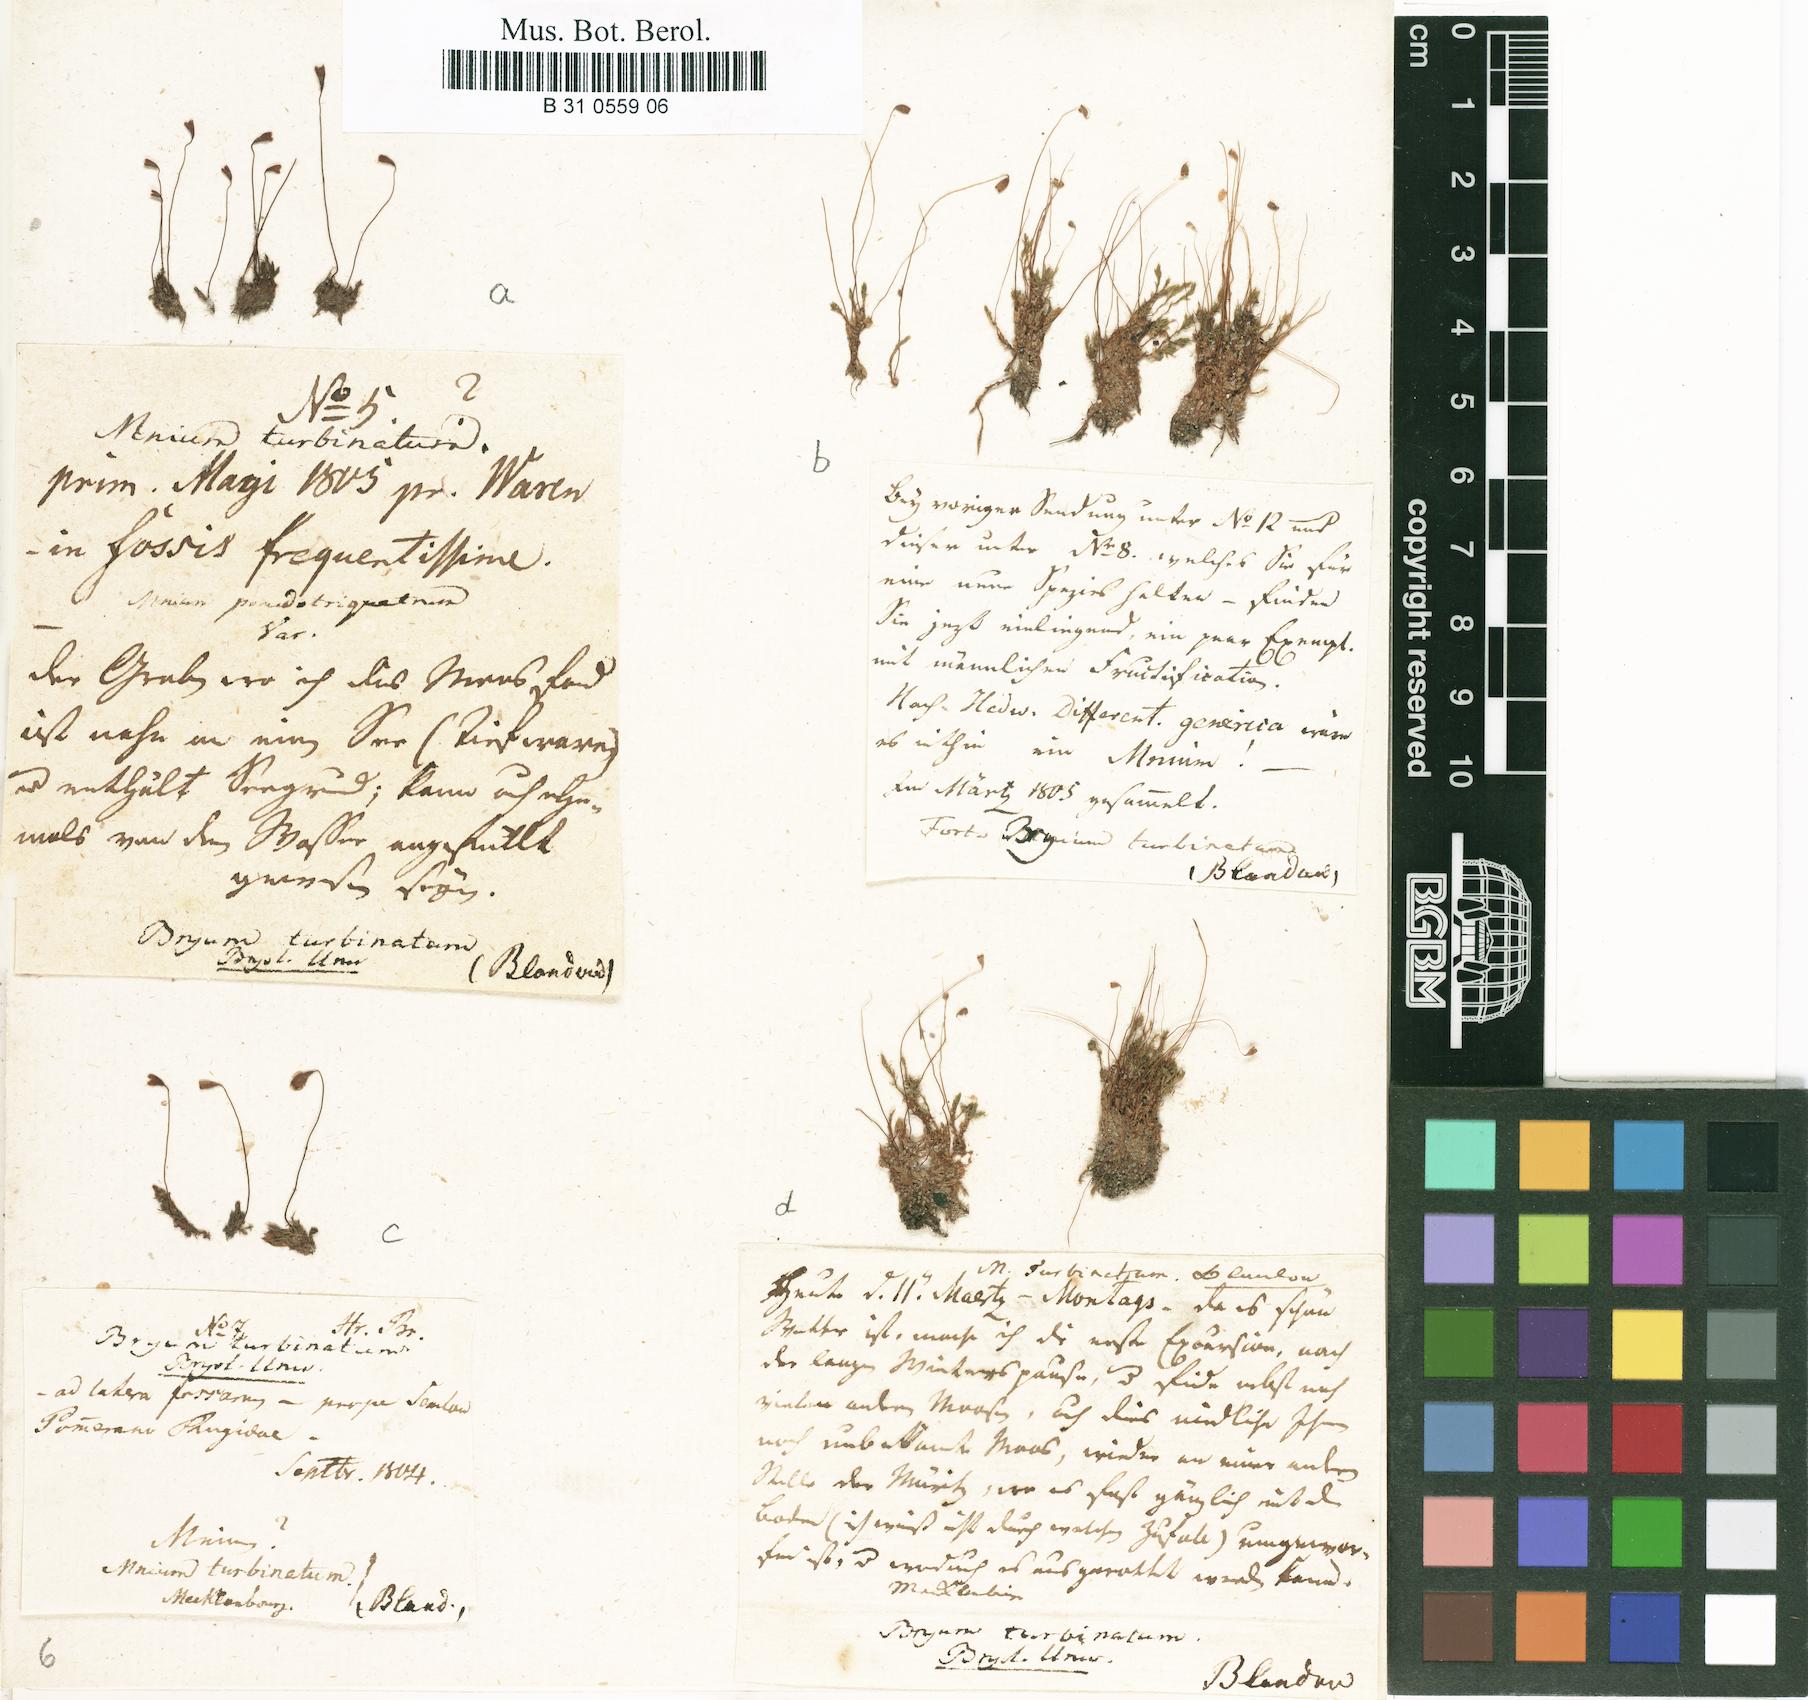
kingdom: Plantae
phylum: Bryophyta
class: Bryopsida
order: Bryales
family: Bryaceae
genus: Ptychostomum
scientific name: Ptychostomum turbinatum
